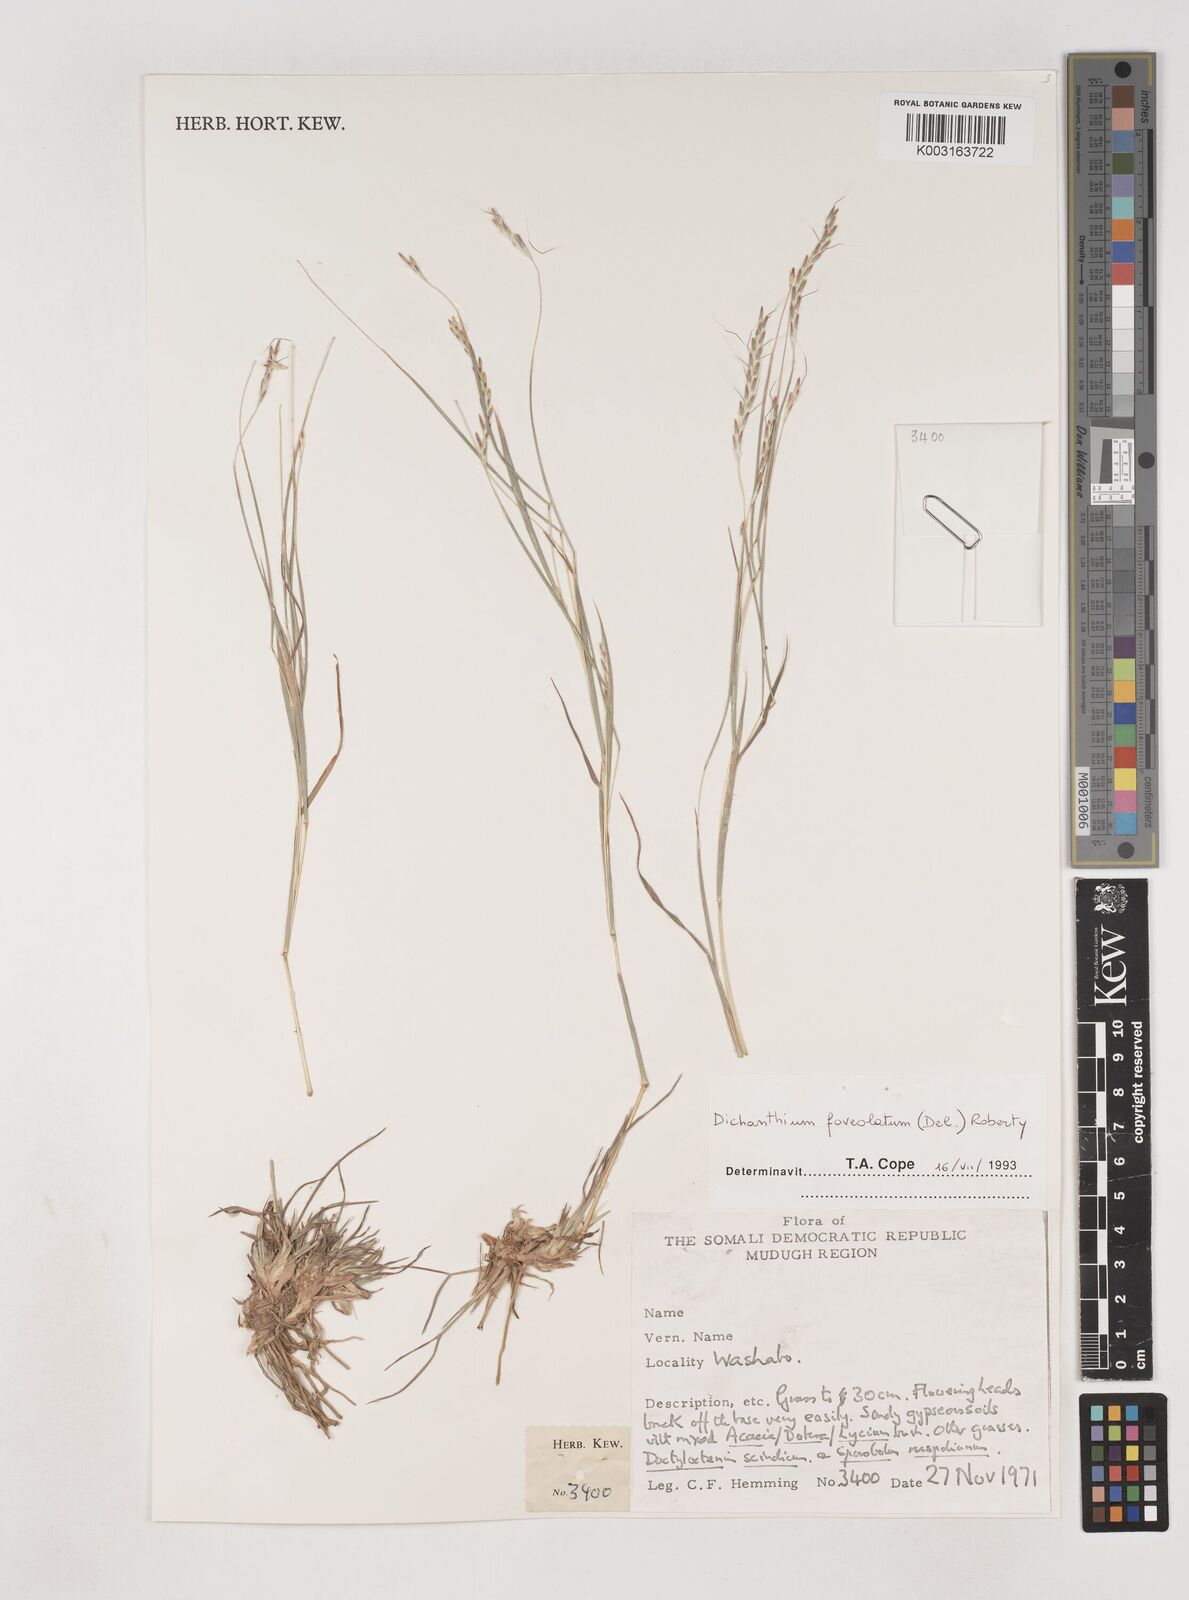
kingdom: Plantae
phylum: Tracheophyta
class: Liliopsida
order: Poales
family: Poaceae
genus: Dichanthium
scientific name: Dichanthium foveolatum
